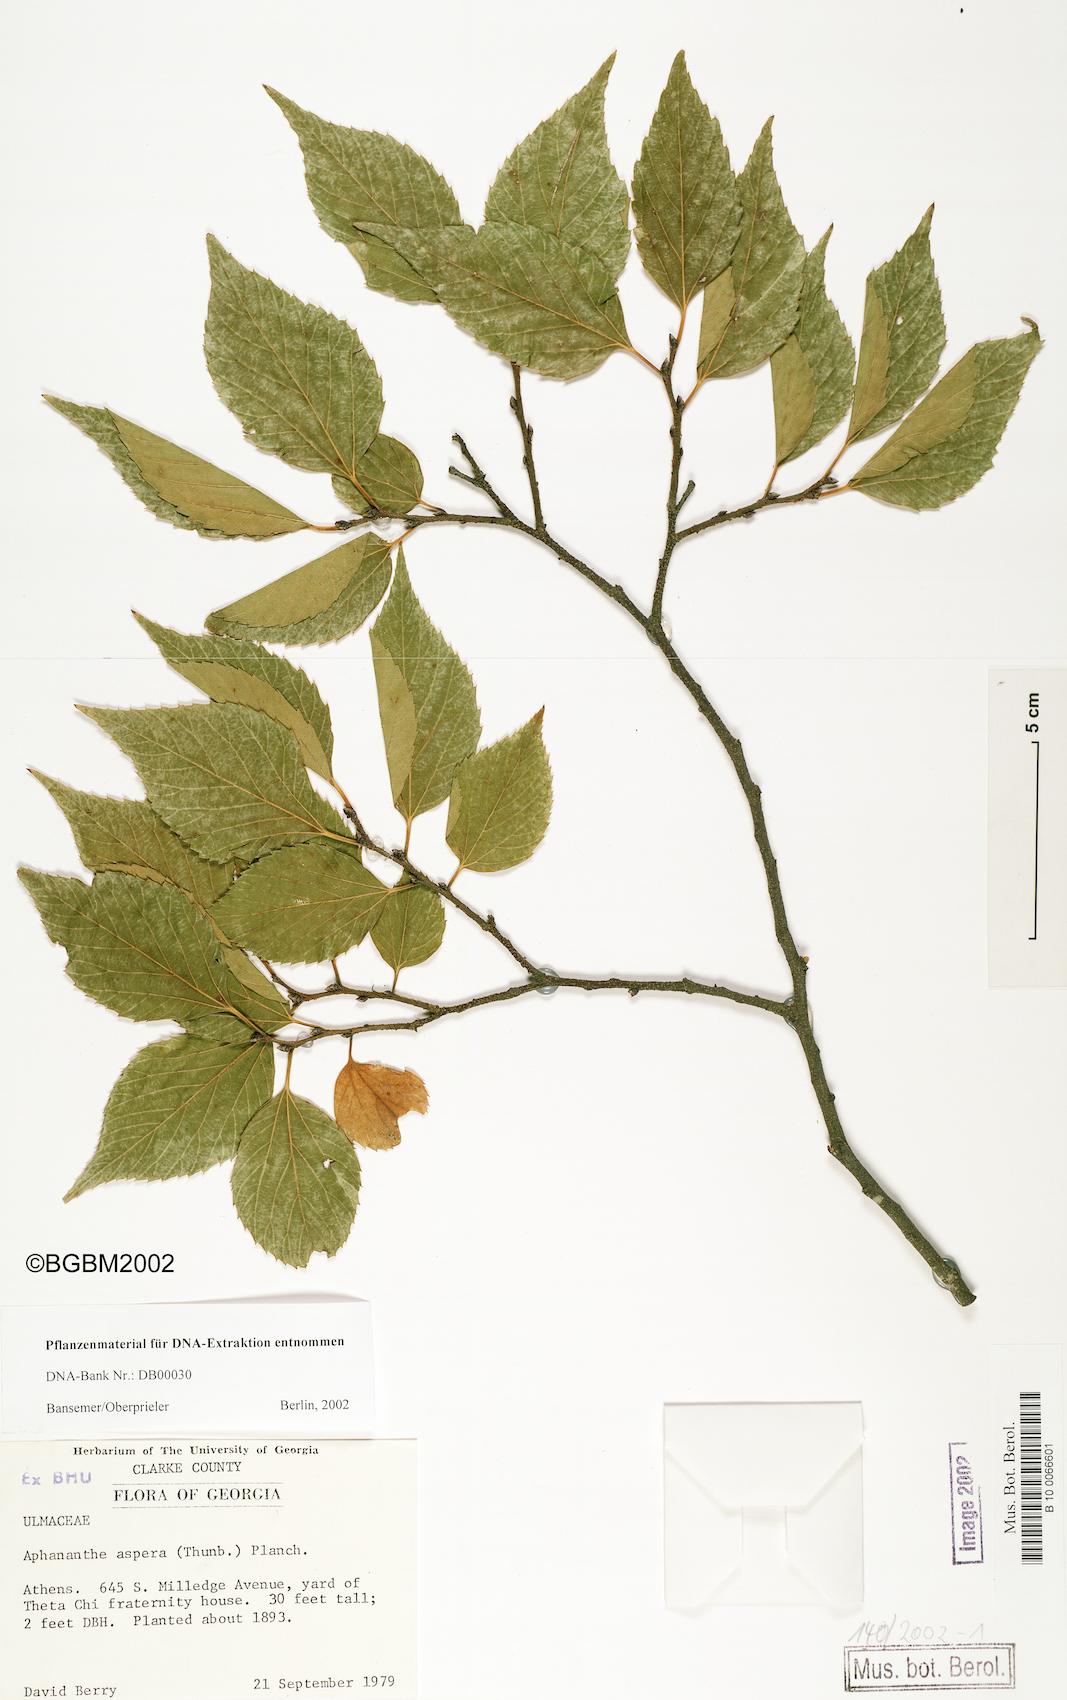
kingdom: Plantae
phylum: Tracheophyta
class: Magnoliopsida
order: Rosales
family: Cannabaceae
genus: Aphananthe
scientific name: Aphananthe aspera
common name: Mukutree
